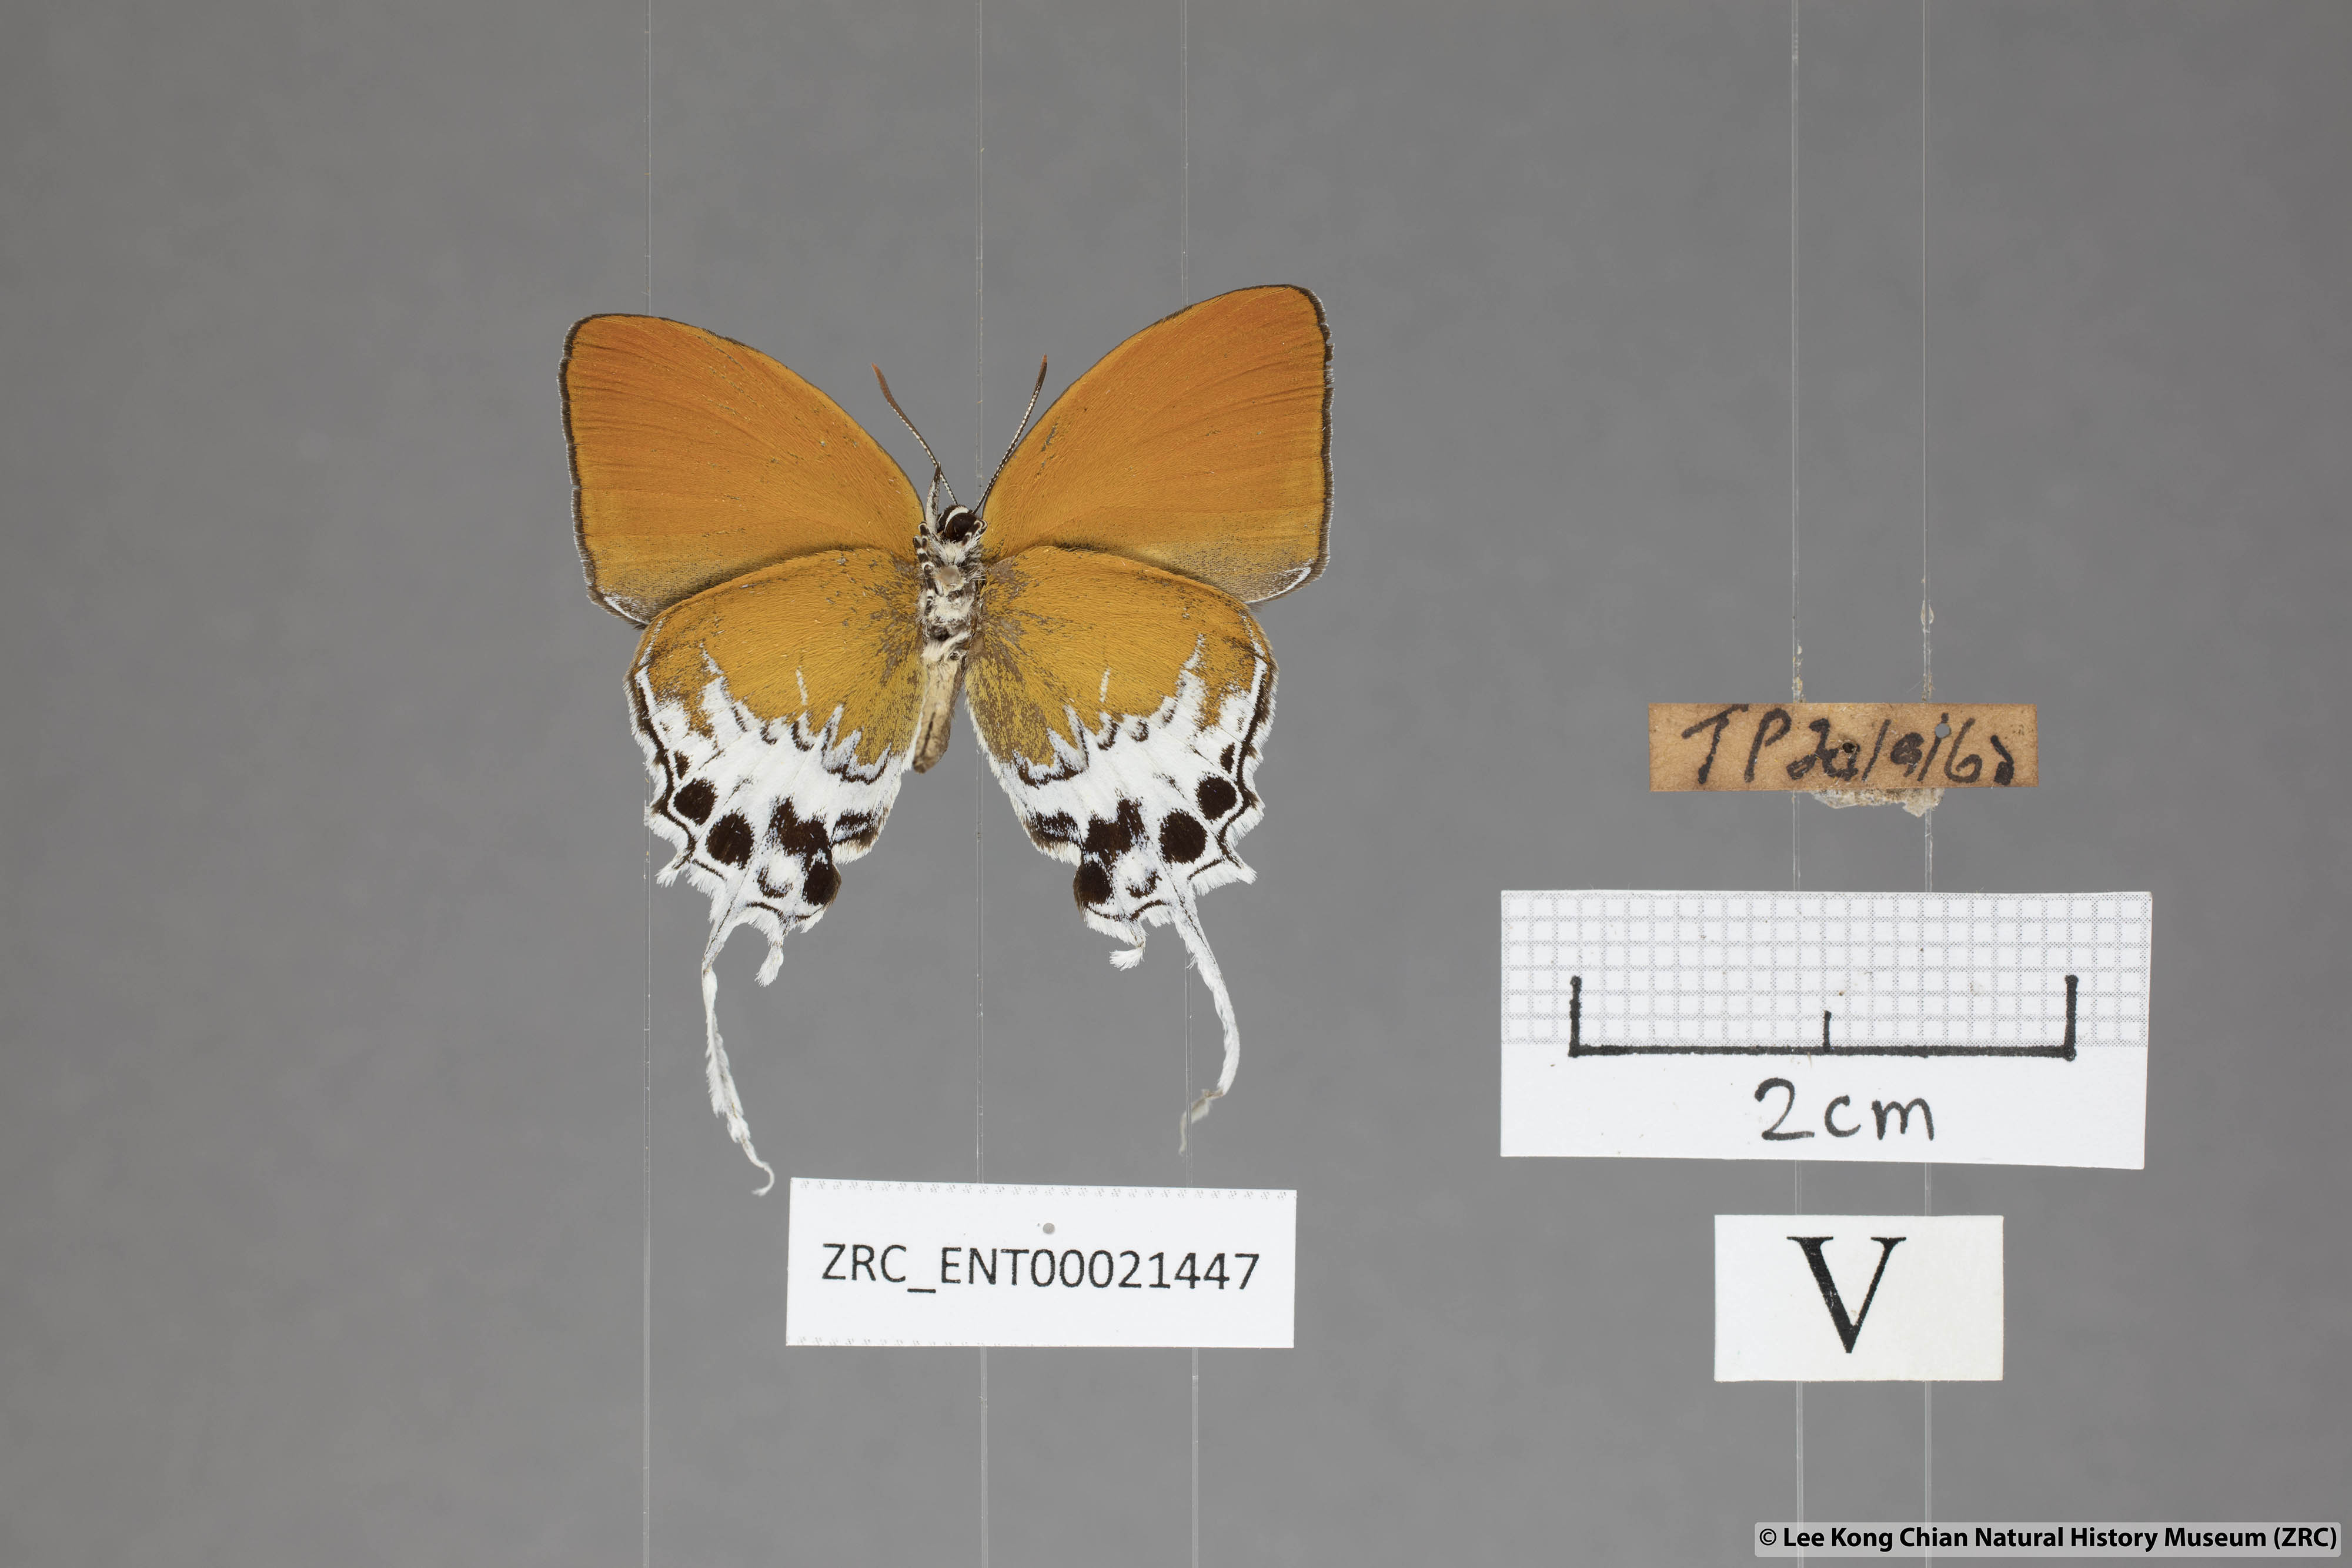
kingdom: Animalia
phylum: Arthropoda
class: Insecta
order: Lepidoptera
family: Lycaenidae
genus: Eooxylides
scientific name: Eooxylides tharis
